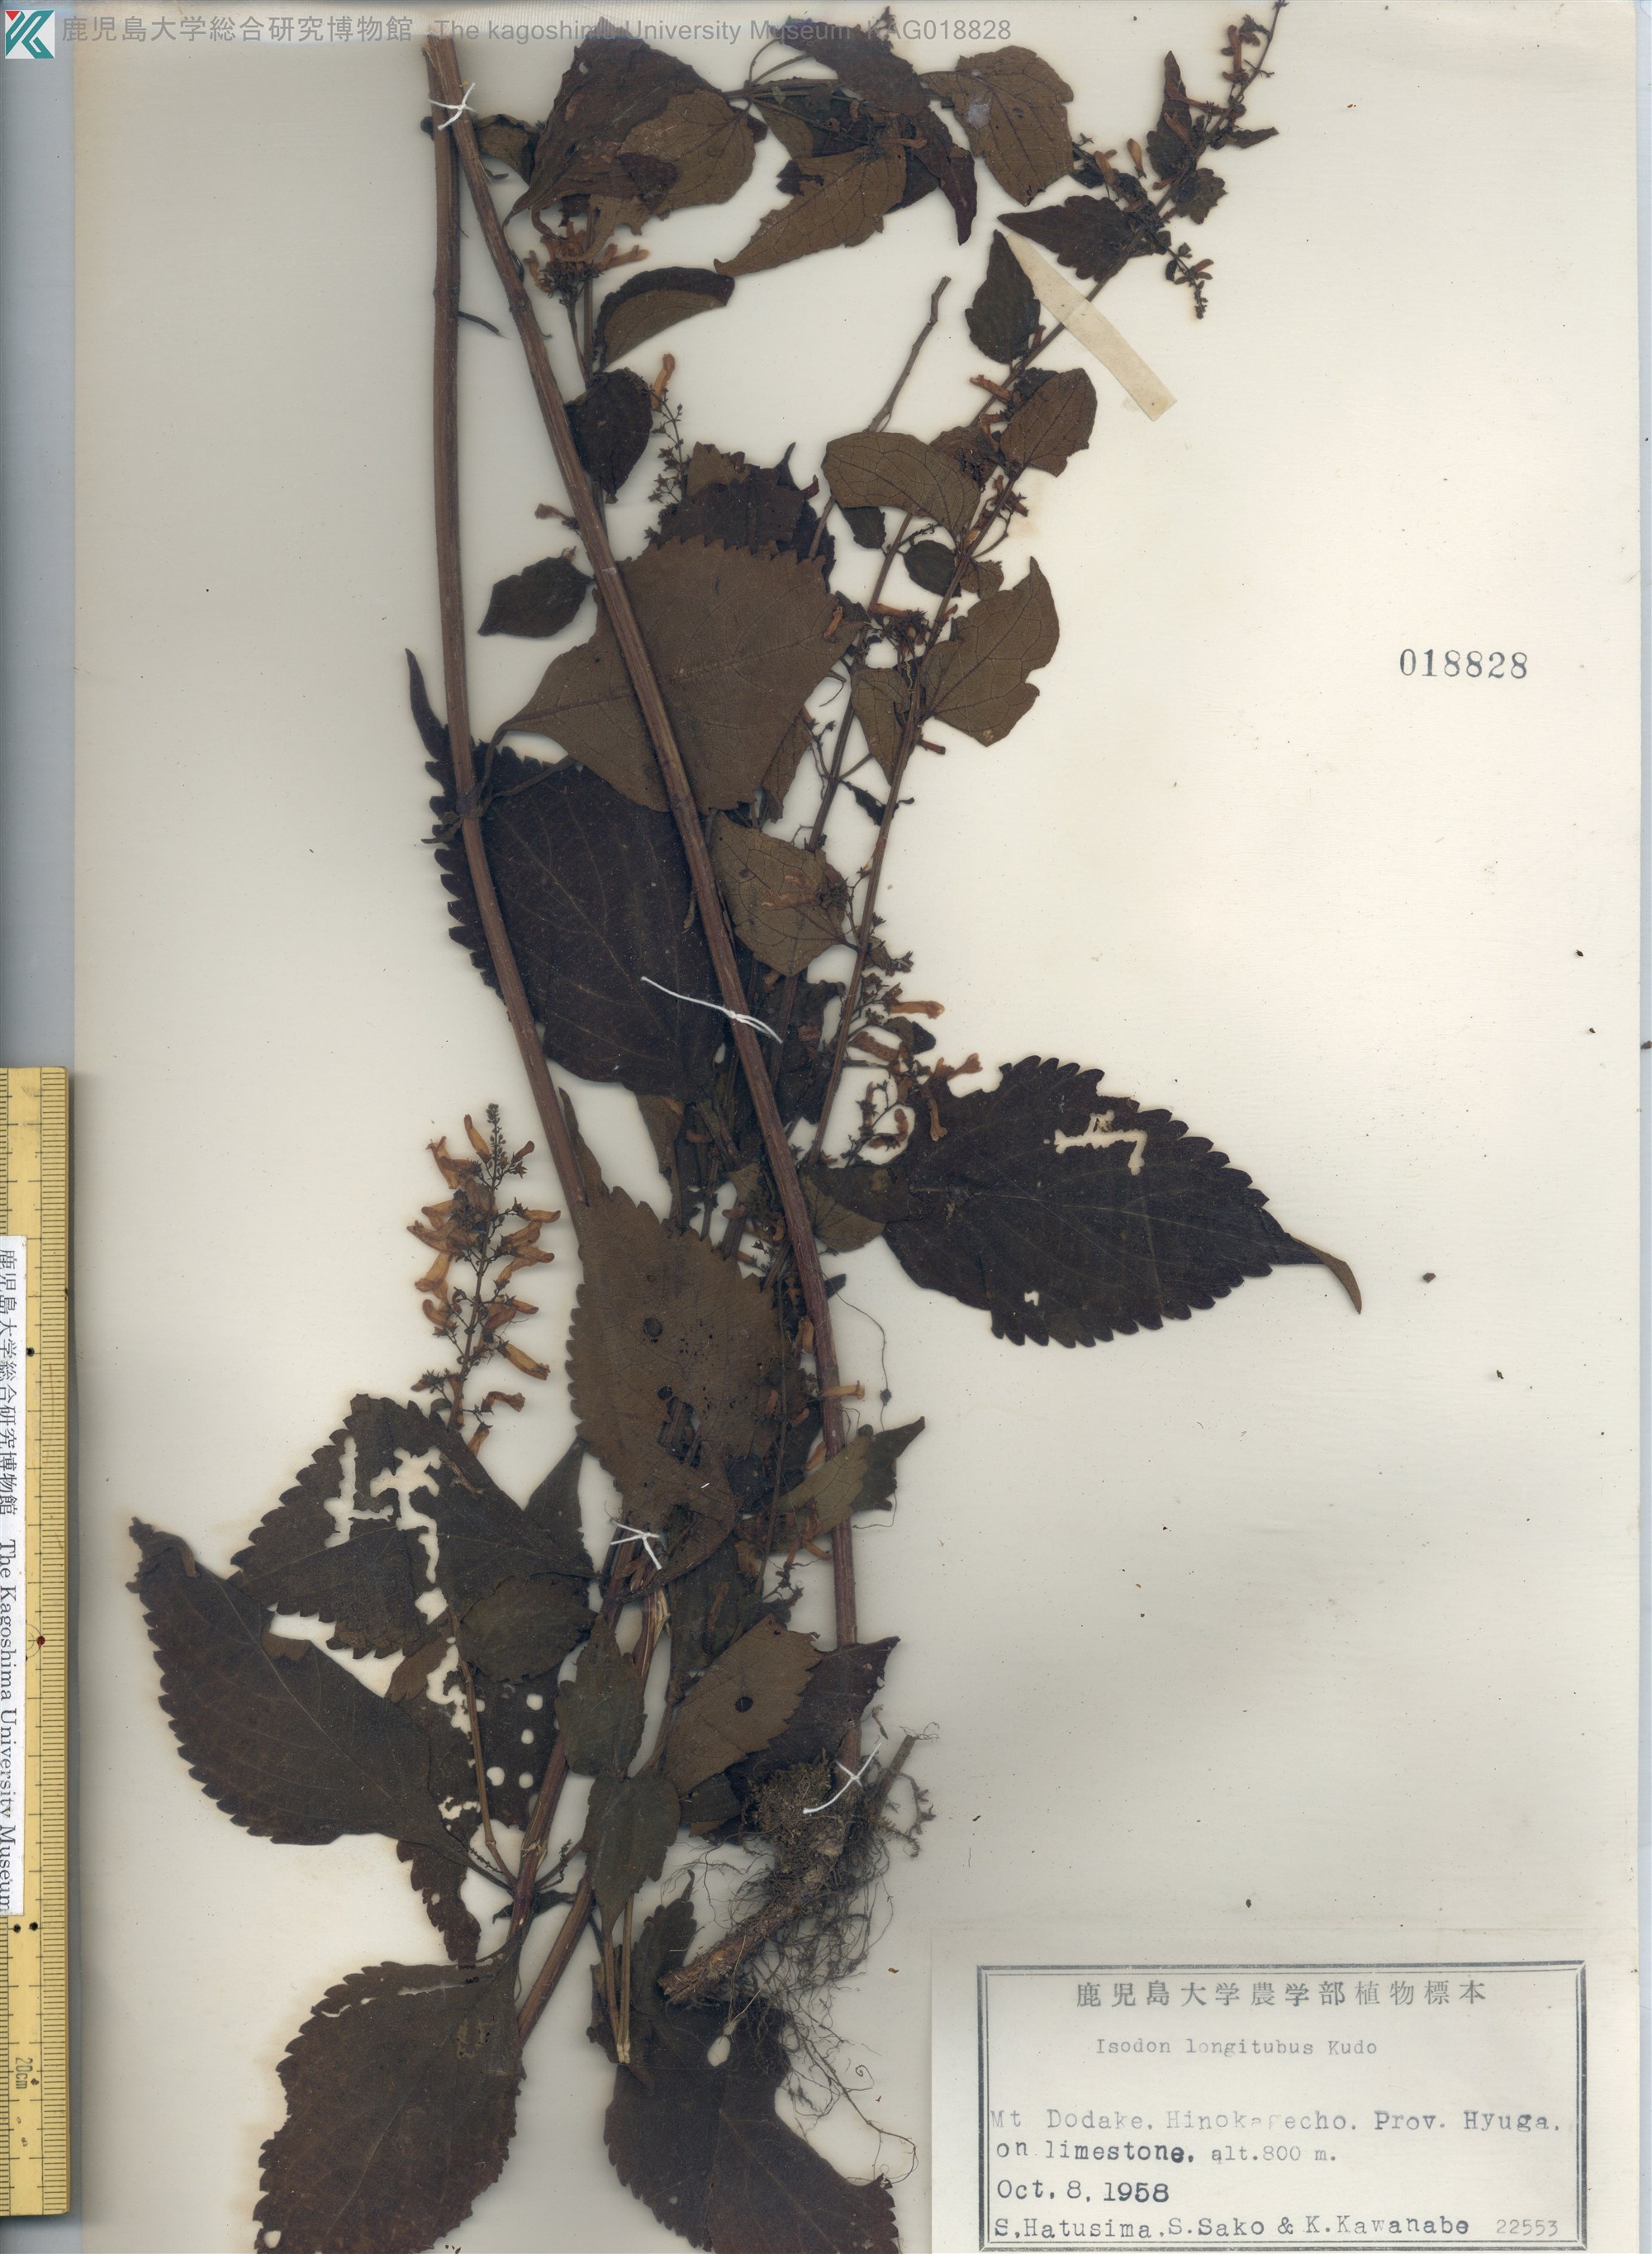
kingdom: Plantae
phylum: Tracheophyta
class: Magnoliopsida
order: Lamiales
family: Lamiaceae
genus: Isodon
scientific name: Isodon longitubus
